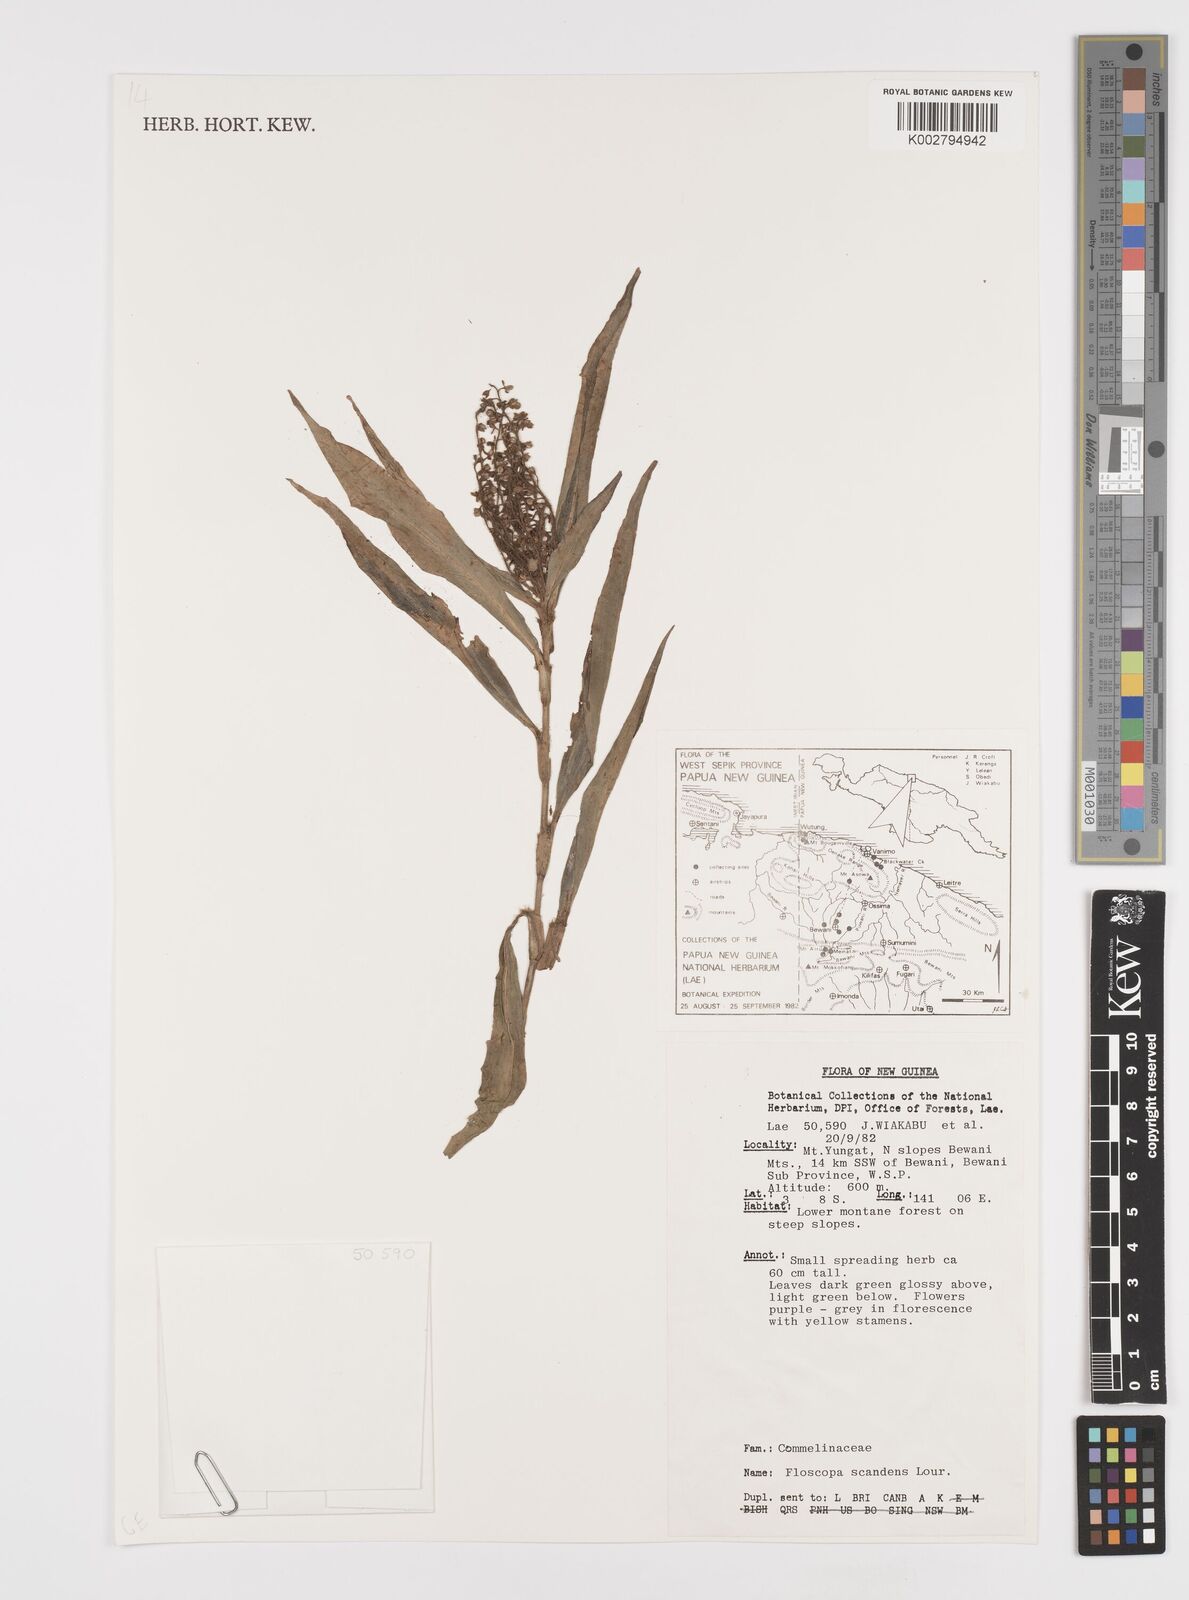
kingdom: Plantae
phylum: Tracheophyta
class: Liliopsida
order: Commelinales
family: Commelinaceae
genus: Floscopa
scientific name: Floscopa scandens
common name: Climbing flower cup
